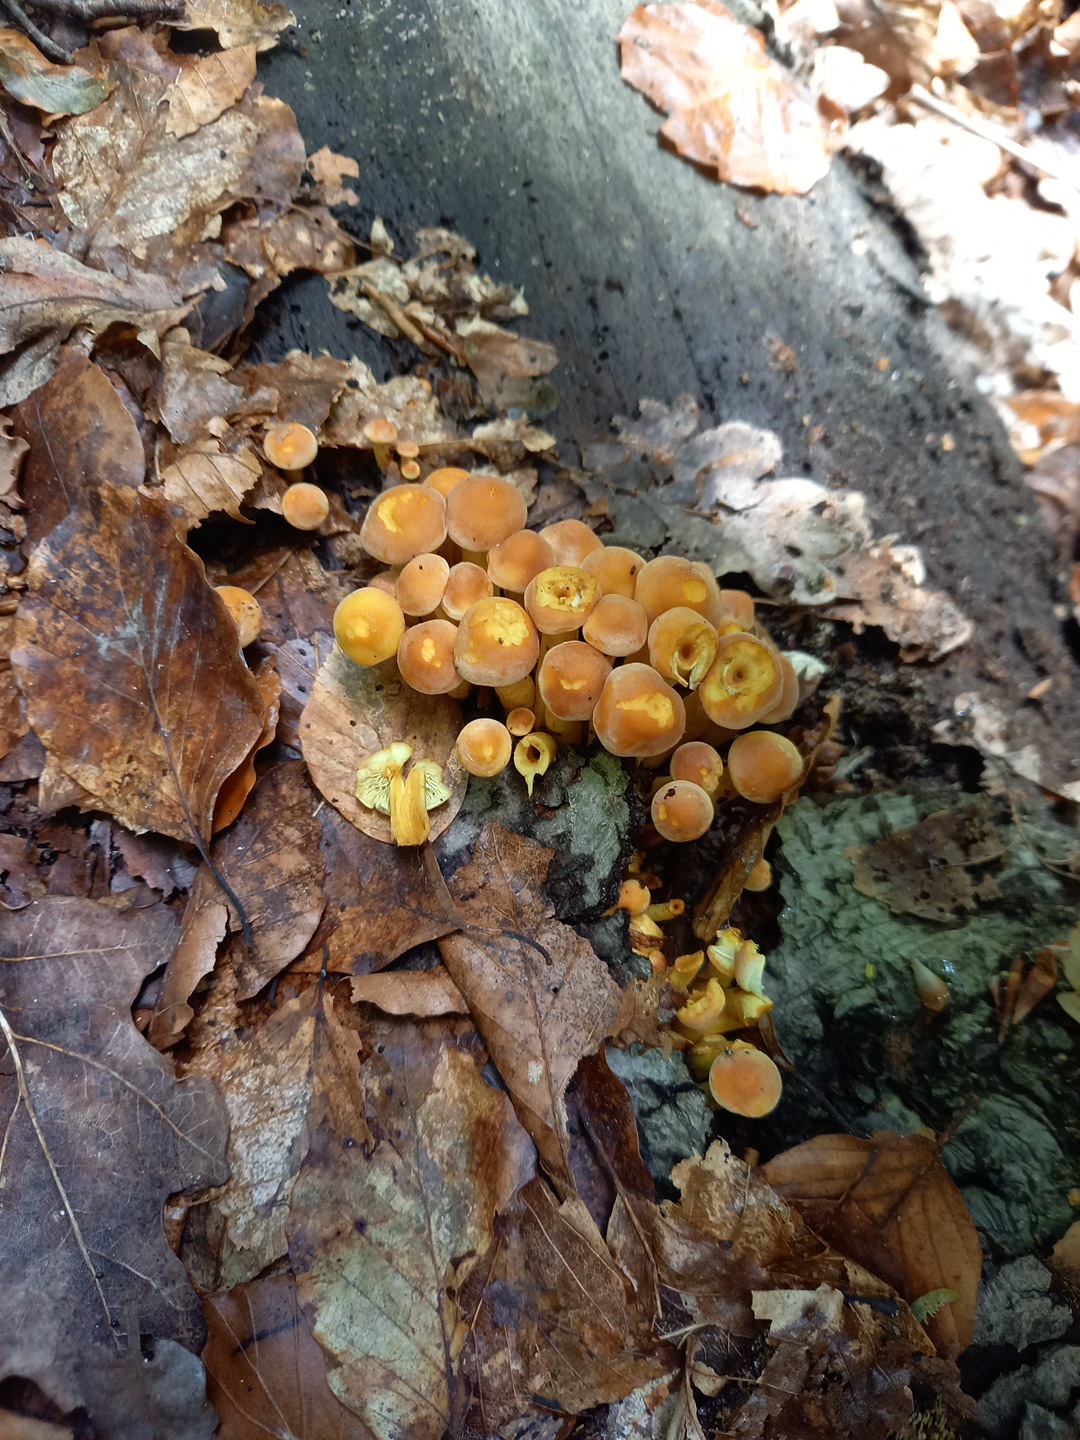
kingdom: Fungi
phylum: Basidiomycota
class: Agaricomycetes
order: Agaricales
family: Strophariaceae
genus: Hypholoma
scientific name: Hypholoma fasciculare
